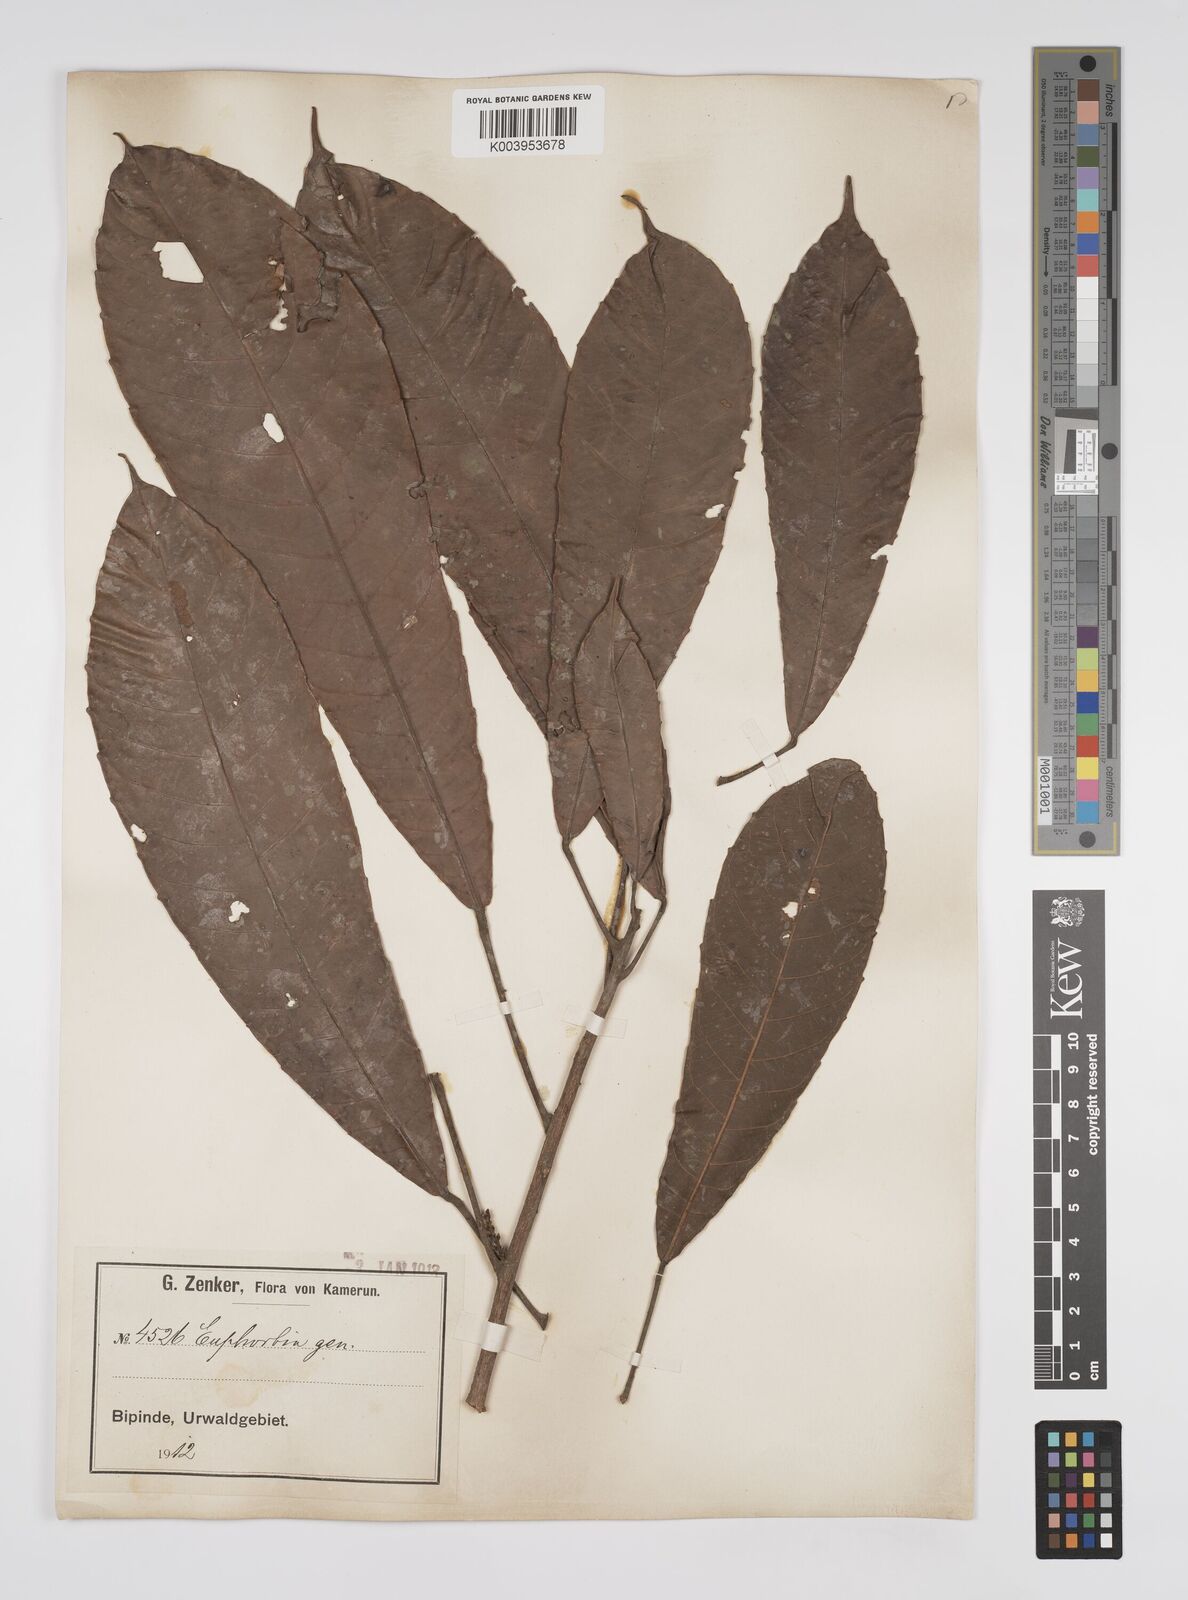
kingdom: Plantae
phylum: Tracheophyta
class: Magnoliopsida
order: Malpighiales
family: Euphorbiaceae
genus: Mareyopsis
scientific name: Mareyopsis longifolia
